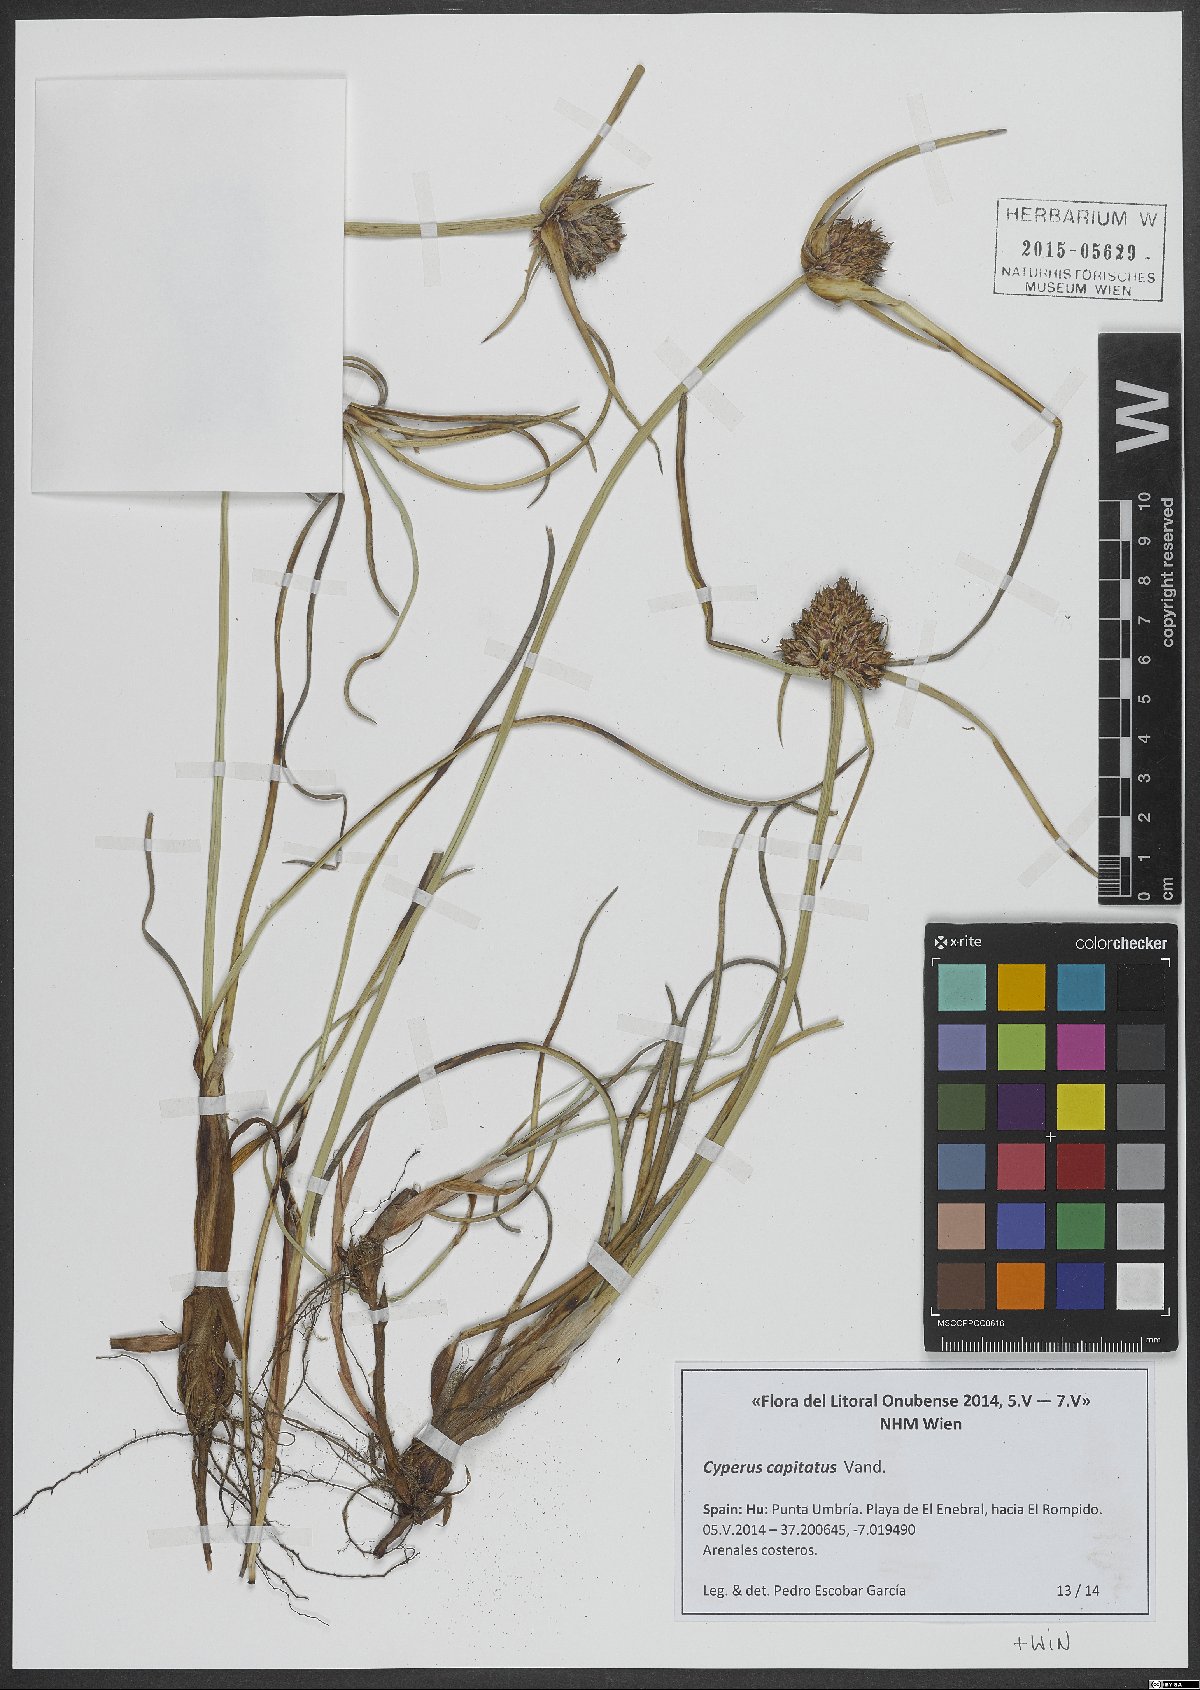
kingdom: Plantae
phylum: Tracheophyta
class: Liliopsida
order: Poales
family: Cyperaceae
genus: Cyperus
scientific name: Cyperus capitatus
